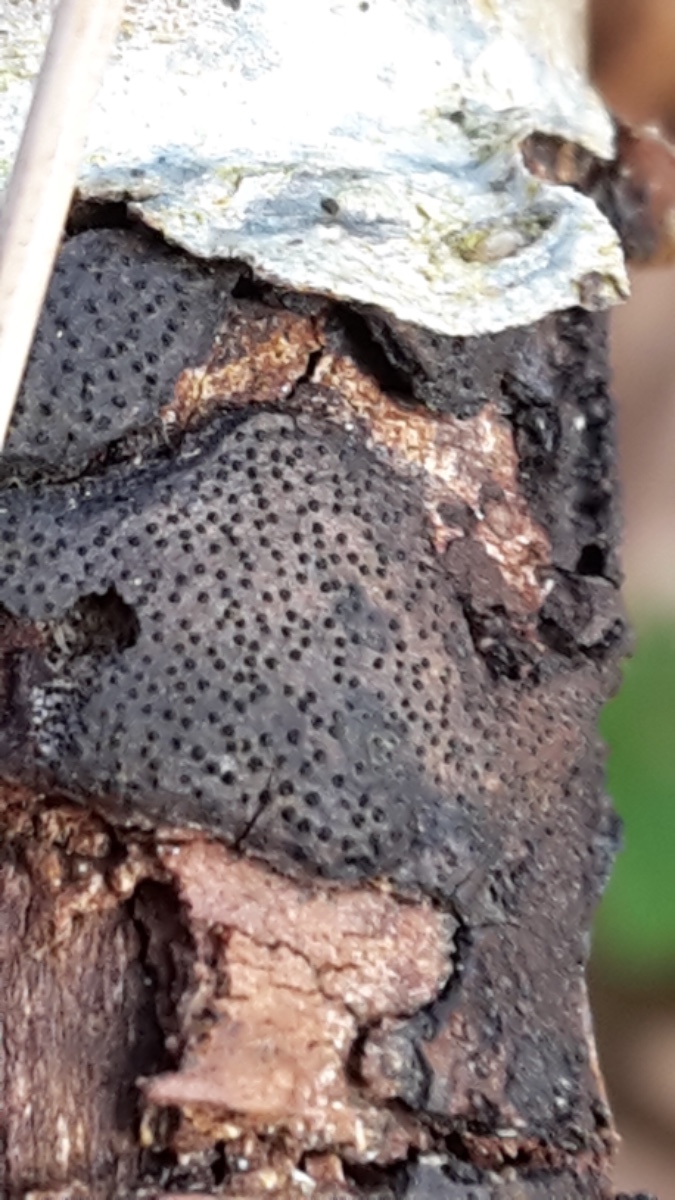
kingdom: Fungi
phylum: Ascomycota
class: Sordariomycetes
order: Xylariales
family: Diatrypaceae
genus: Diatrype
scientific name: Diatrype
